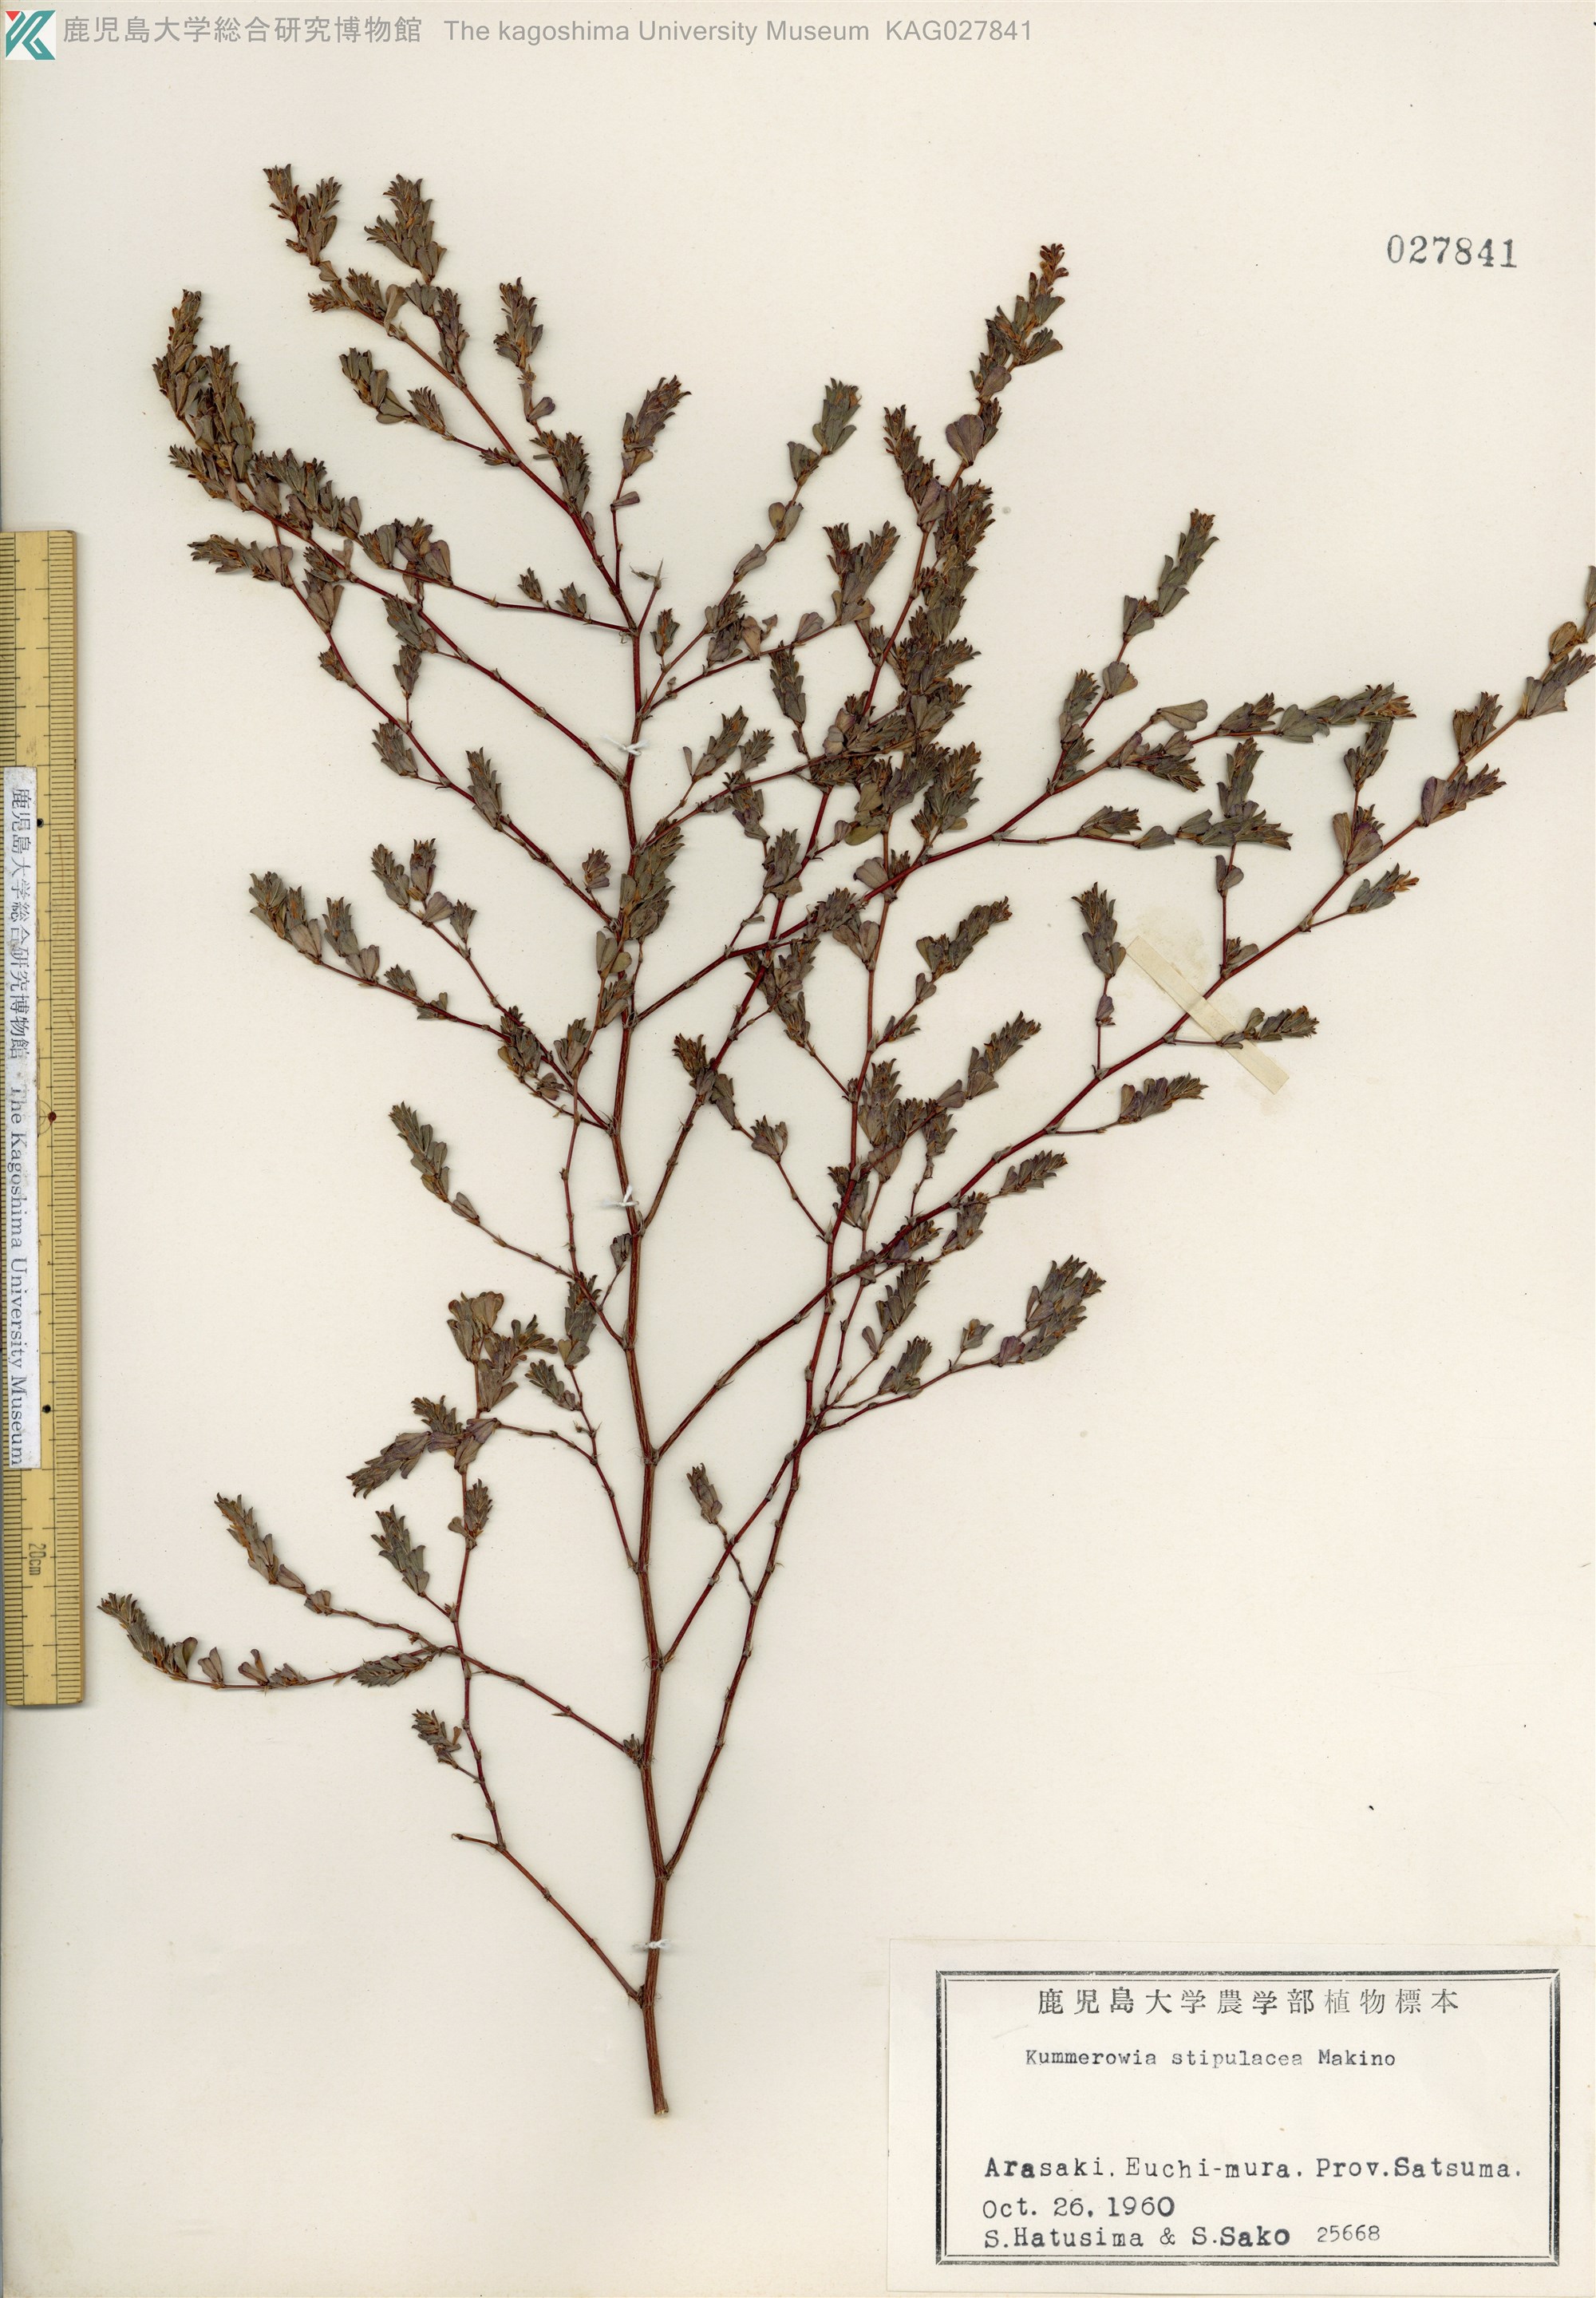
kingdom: Plantae
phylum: Tracheophyta
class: Magnoliopsida
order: Fabales
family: Fabaceae
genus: Kummerowia
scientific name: Kummerowia stipulacea
